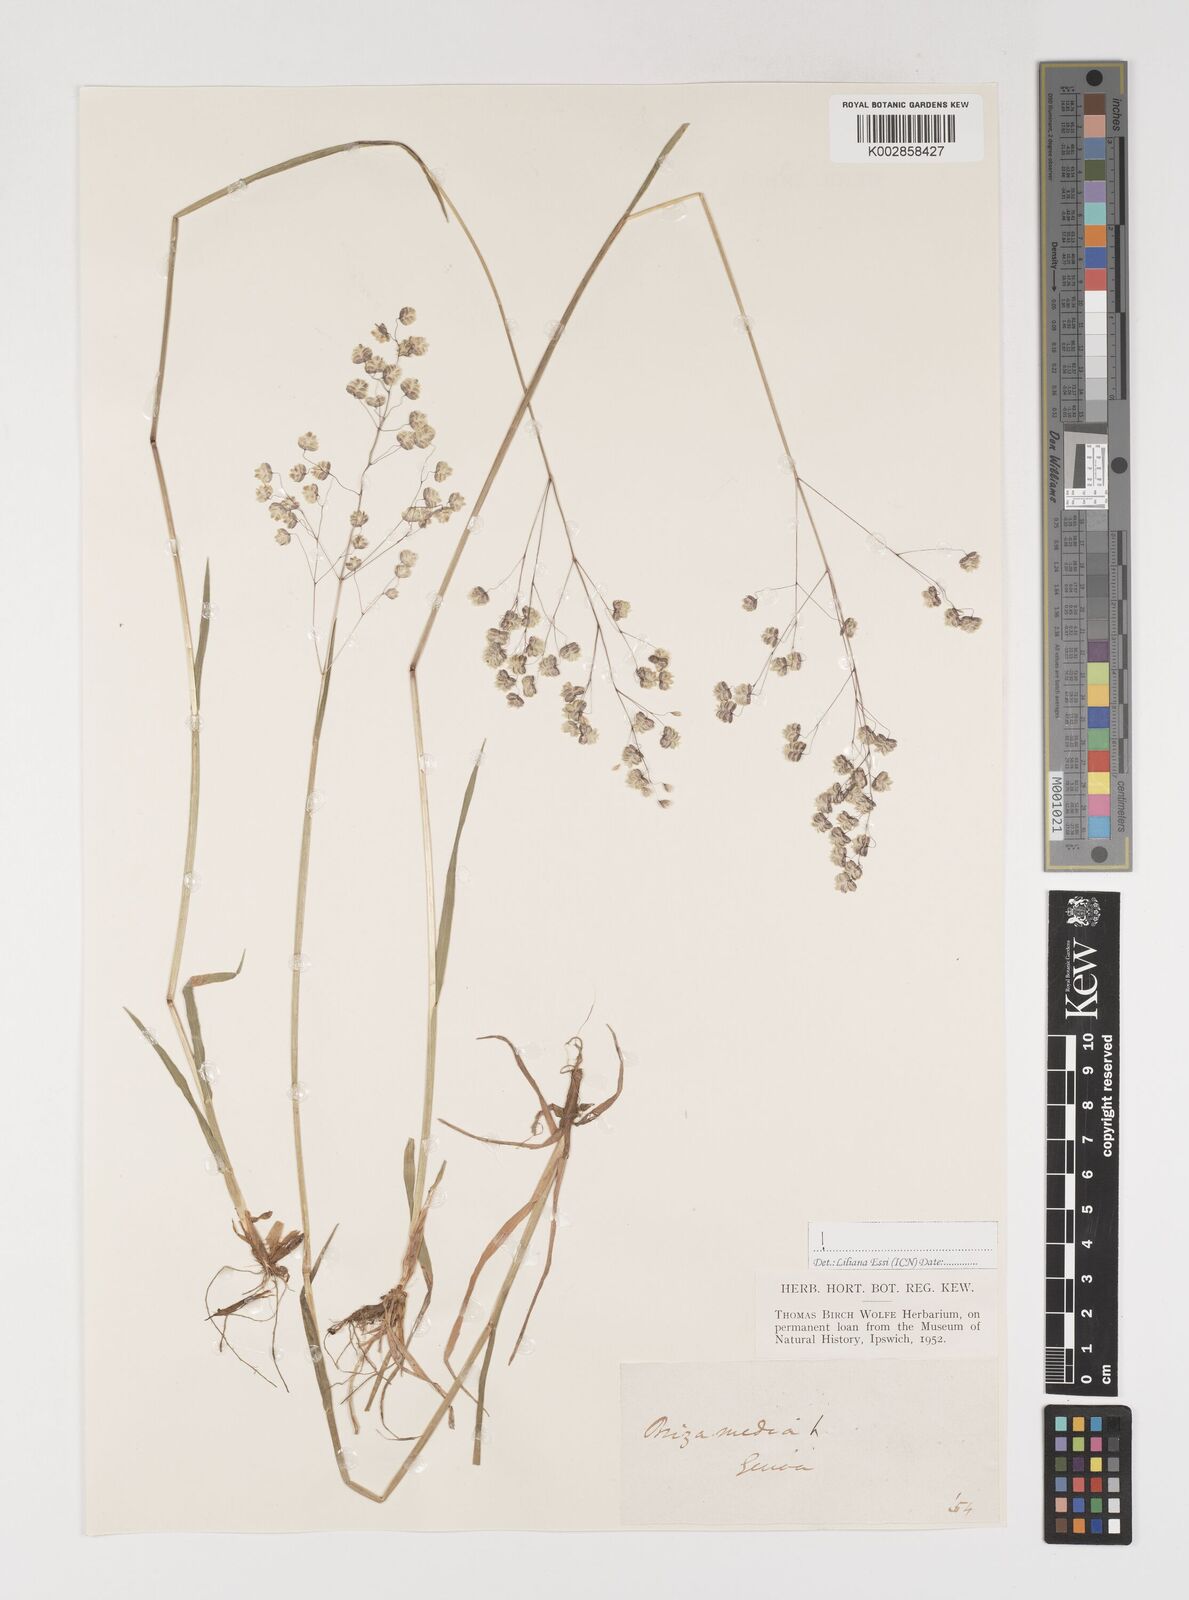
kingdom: Plantae
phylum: Tracheophyta
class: Liliopsida
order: Poales
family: Poaceae
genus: Briza
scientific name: Briza media
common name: Quaking grass
